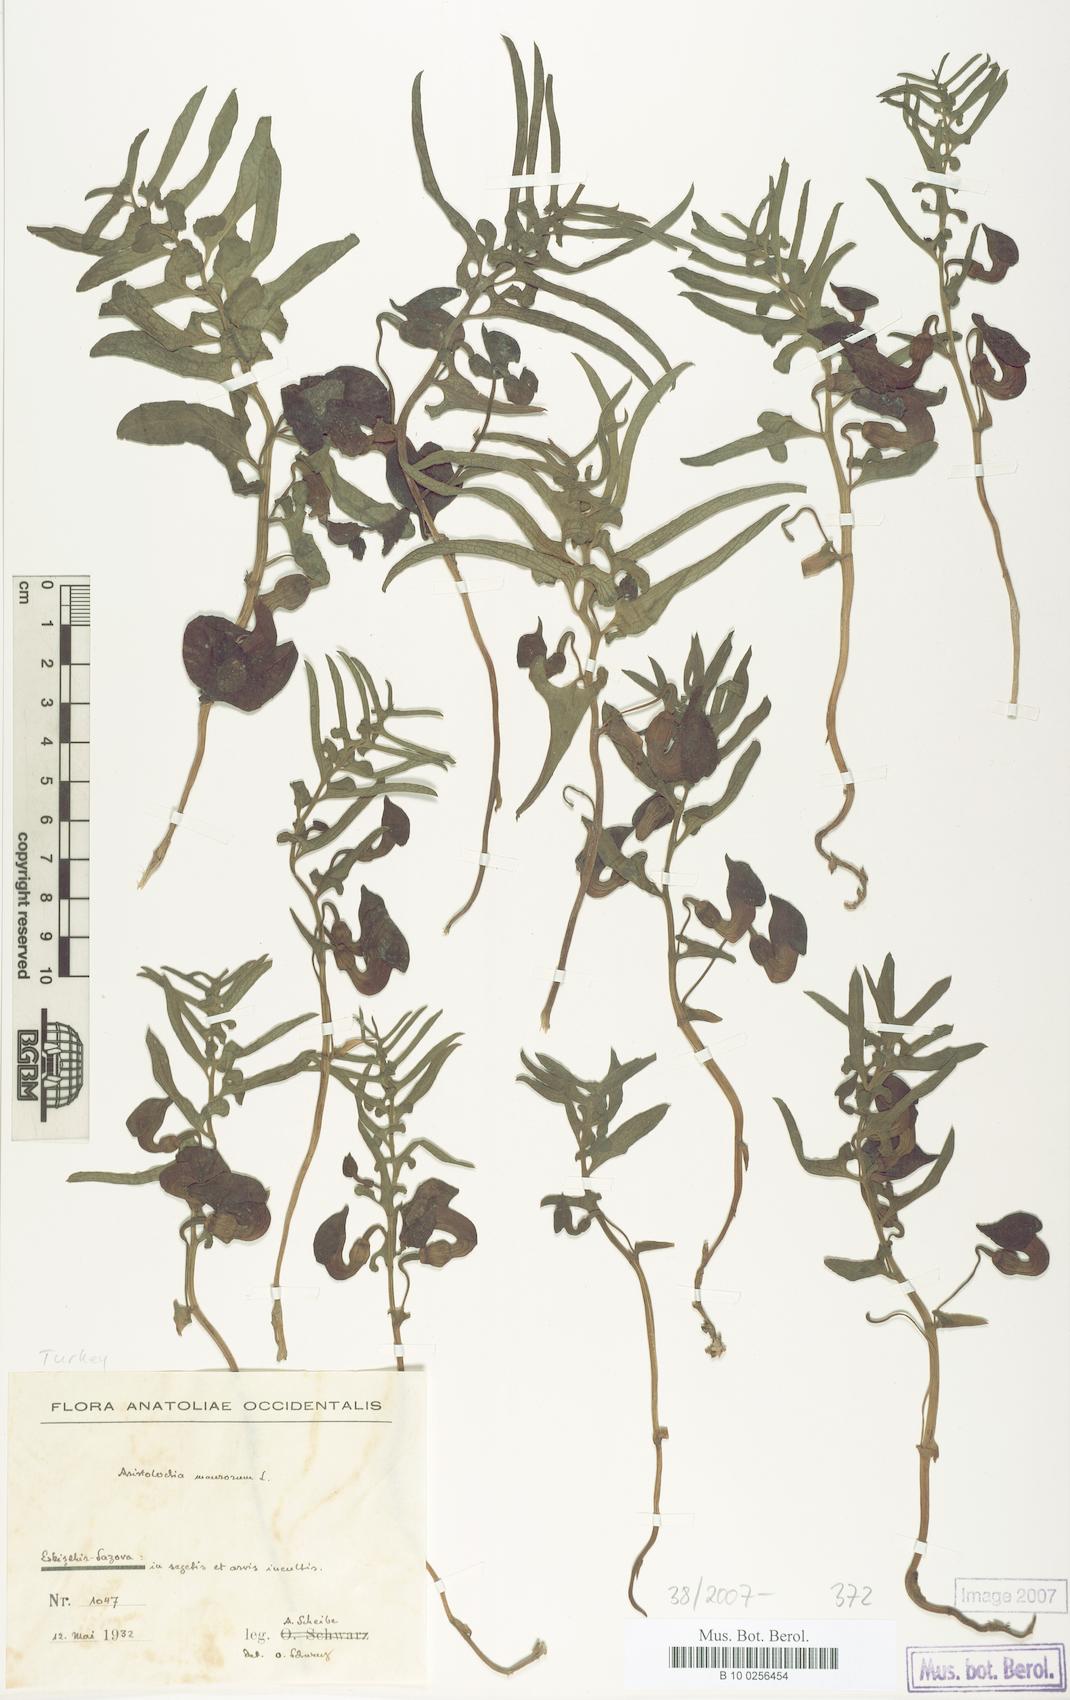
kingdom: Plantae
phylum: Tracheophyta
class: Magnoliopsida
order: Piperales
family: Aristolochiaceae
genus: Aristolochia
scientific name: Aristolochia maurorum
